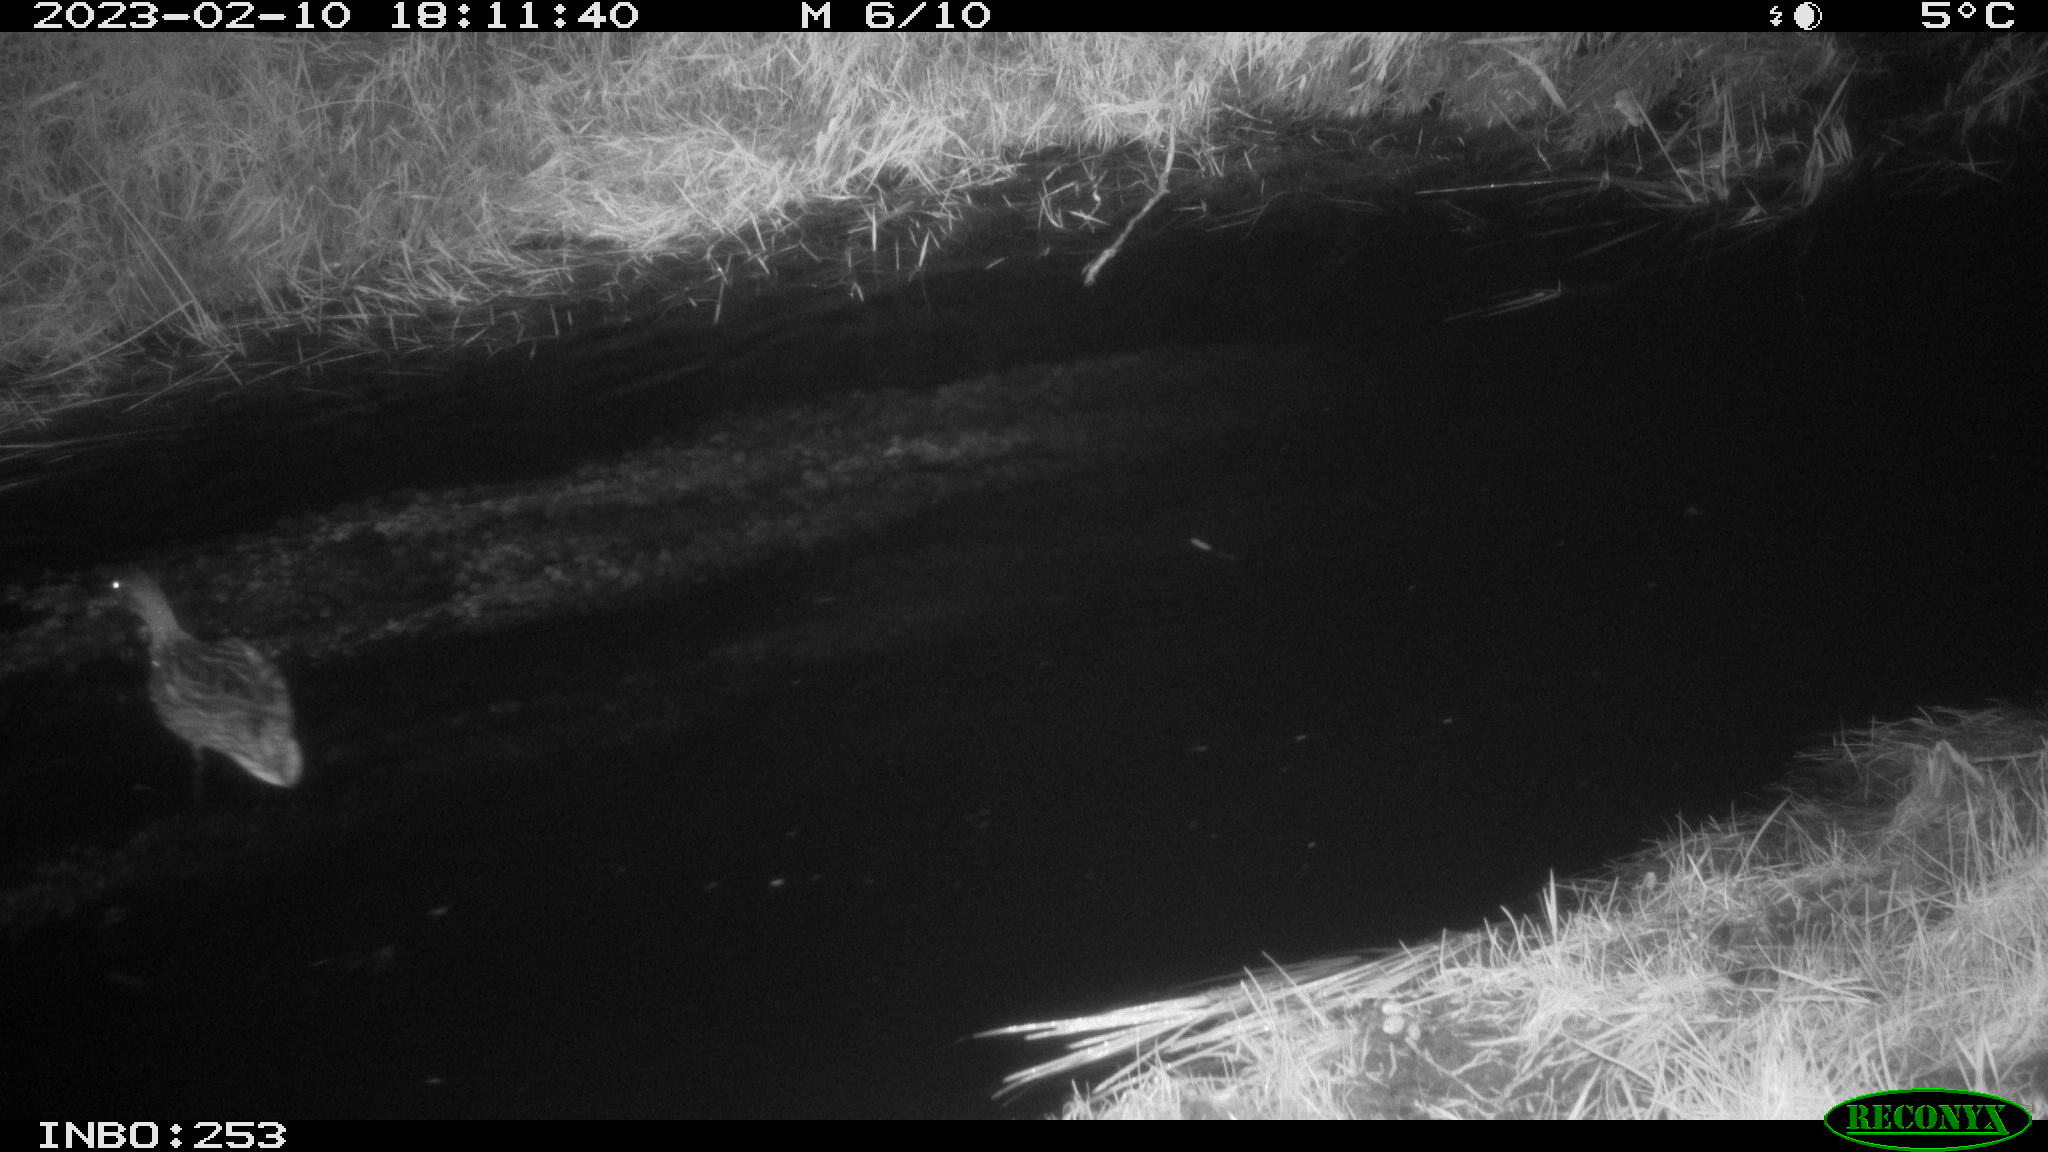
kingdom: Animalia
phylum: Chordata
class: Aves
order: Anseriformes
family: Anatidae
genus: Anas
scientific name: Anas
